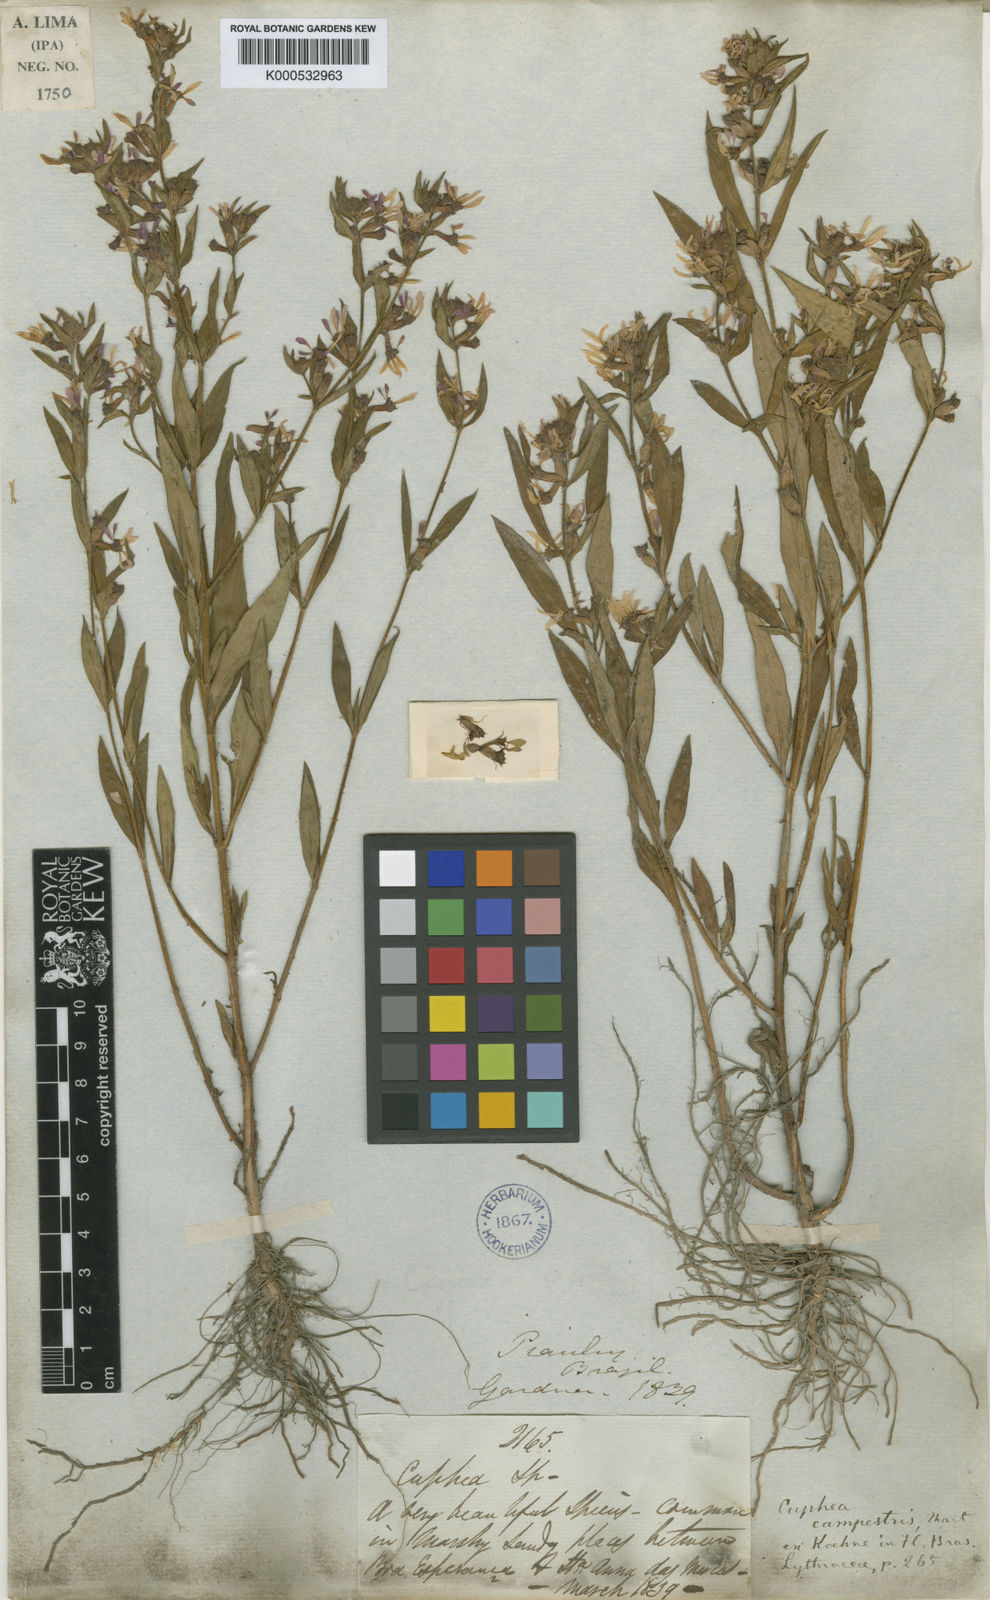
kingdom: Plantae
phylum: Tracheophyta
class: Magnoliopsida
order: Myrtales
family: Lythraceae
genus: Cuphea
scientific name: Cuphea campestris
